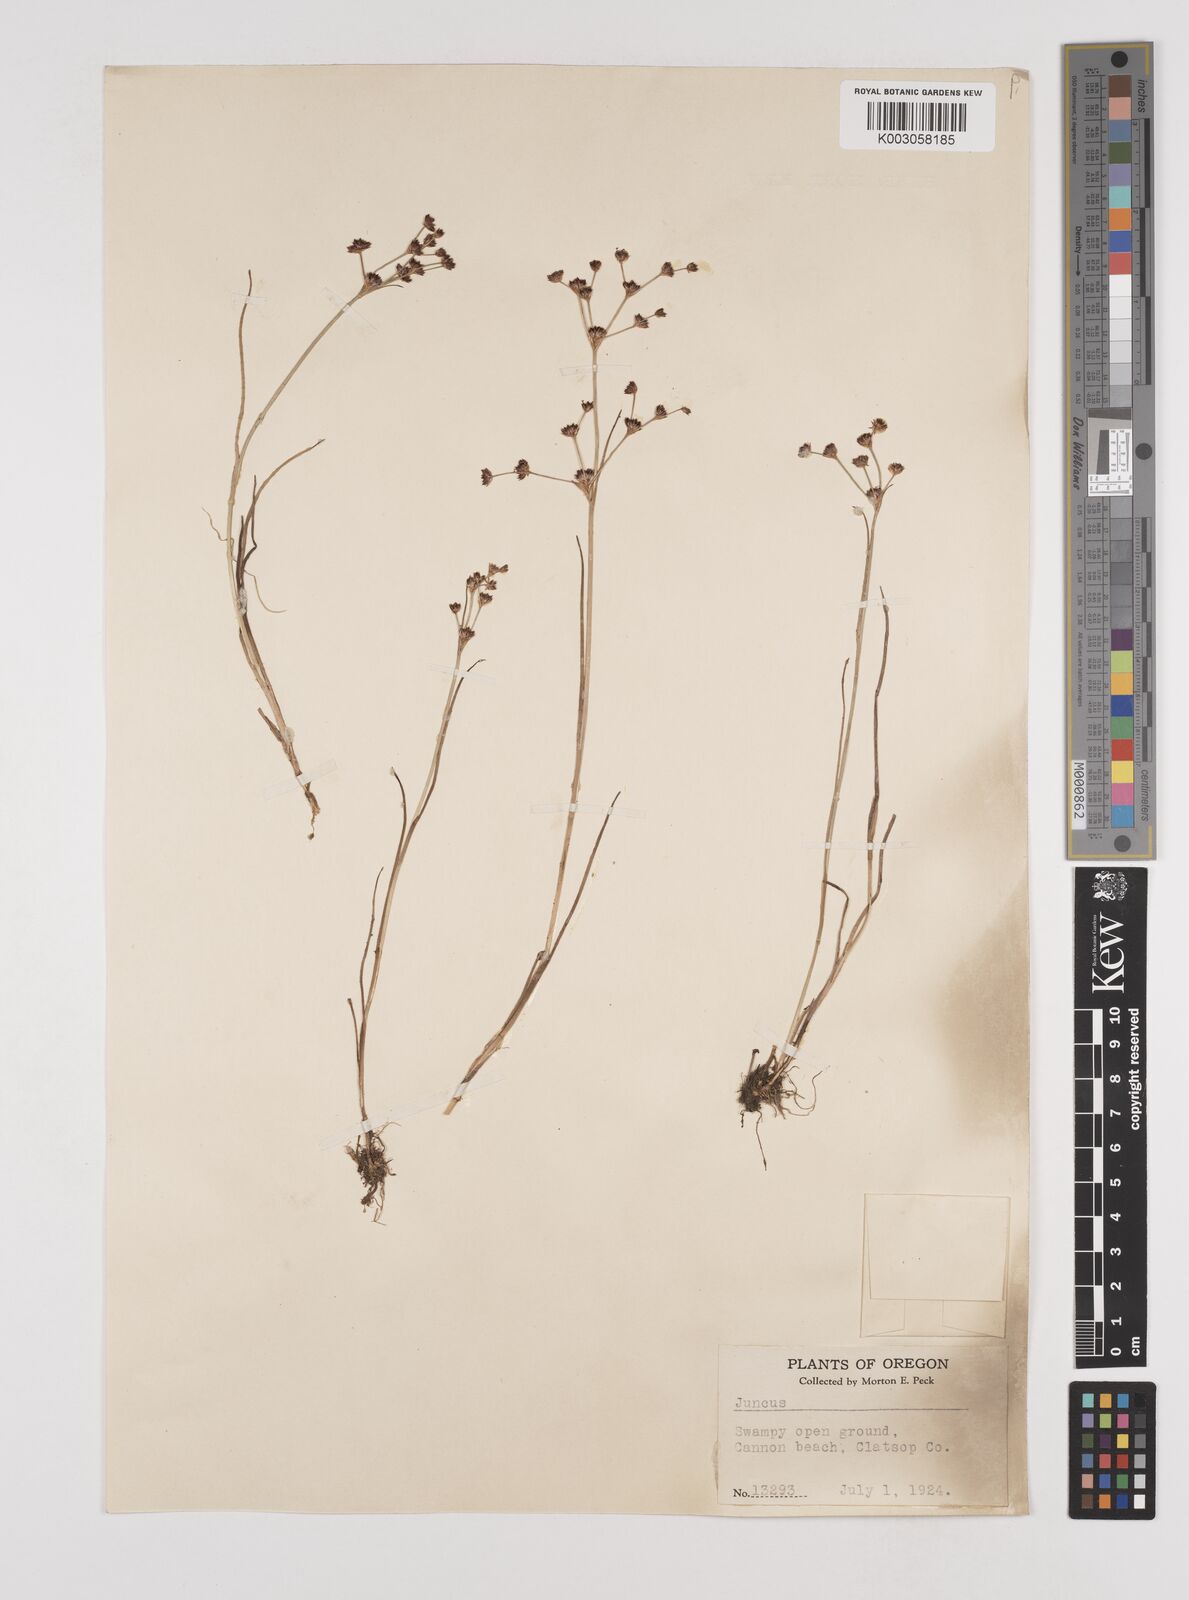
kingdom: Plantae
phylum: Tracheophyta
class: Liliopsida
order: Poales
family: Juncaceae
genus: Juncus
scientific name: Juncus
